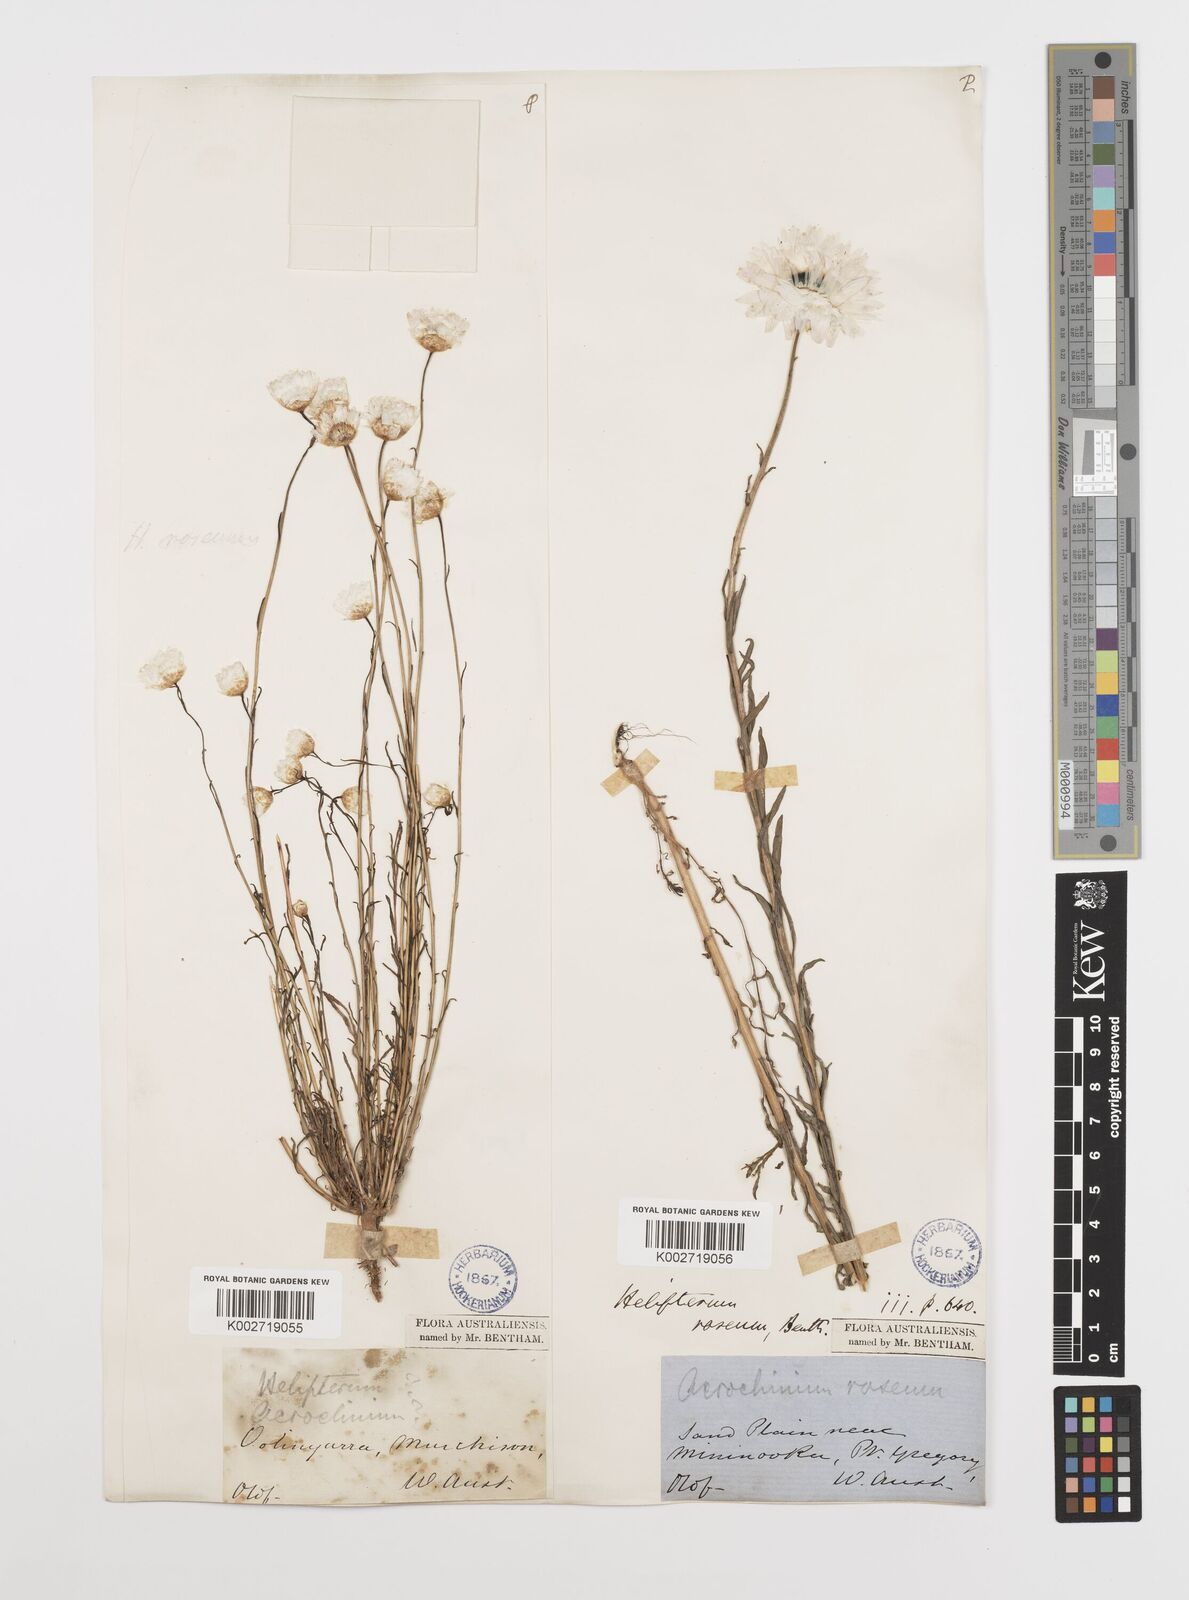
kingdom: Plantae
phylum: Tracheophyta
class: Magnoliopsida
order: Asterales
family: Asteraceae
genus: Rhodanthe
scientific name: Rhodanthe chlorocephala
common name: Rosy sunray
